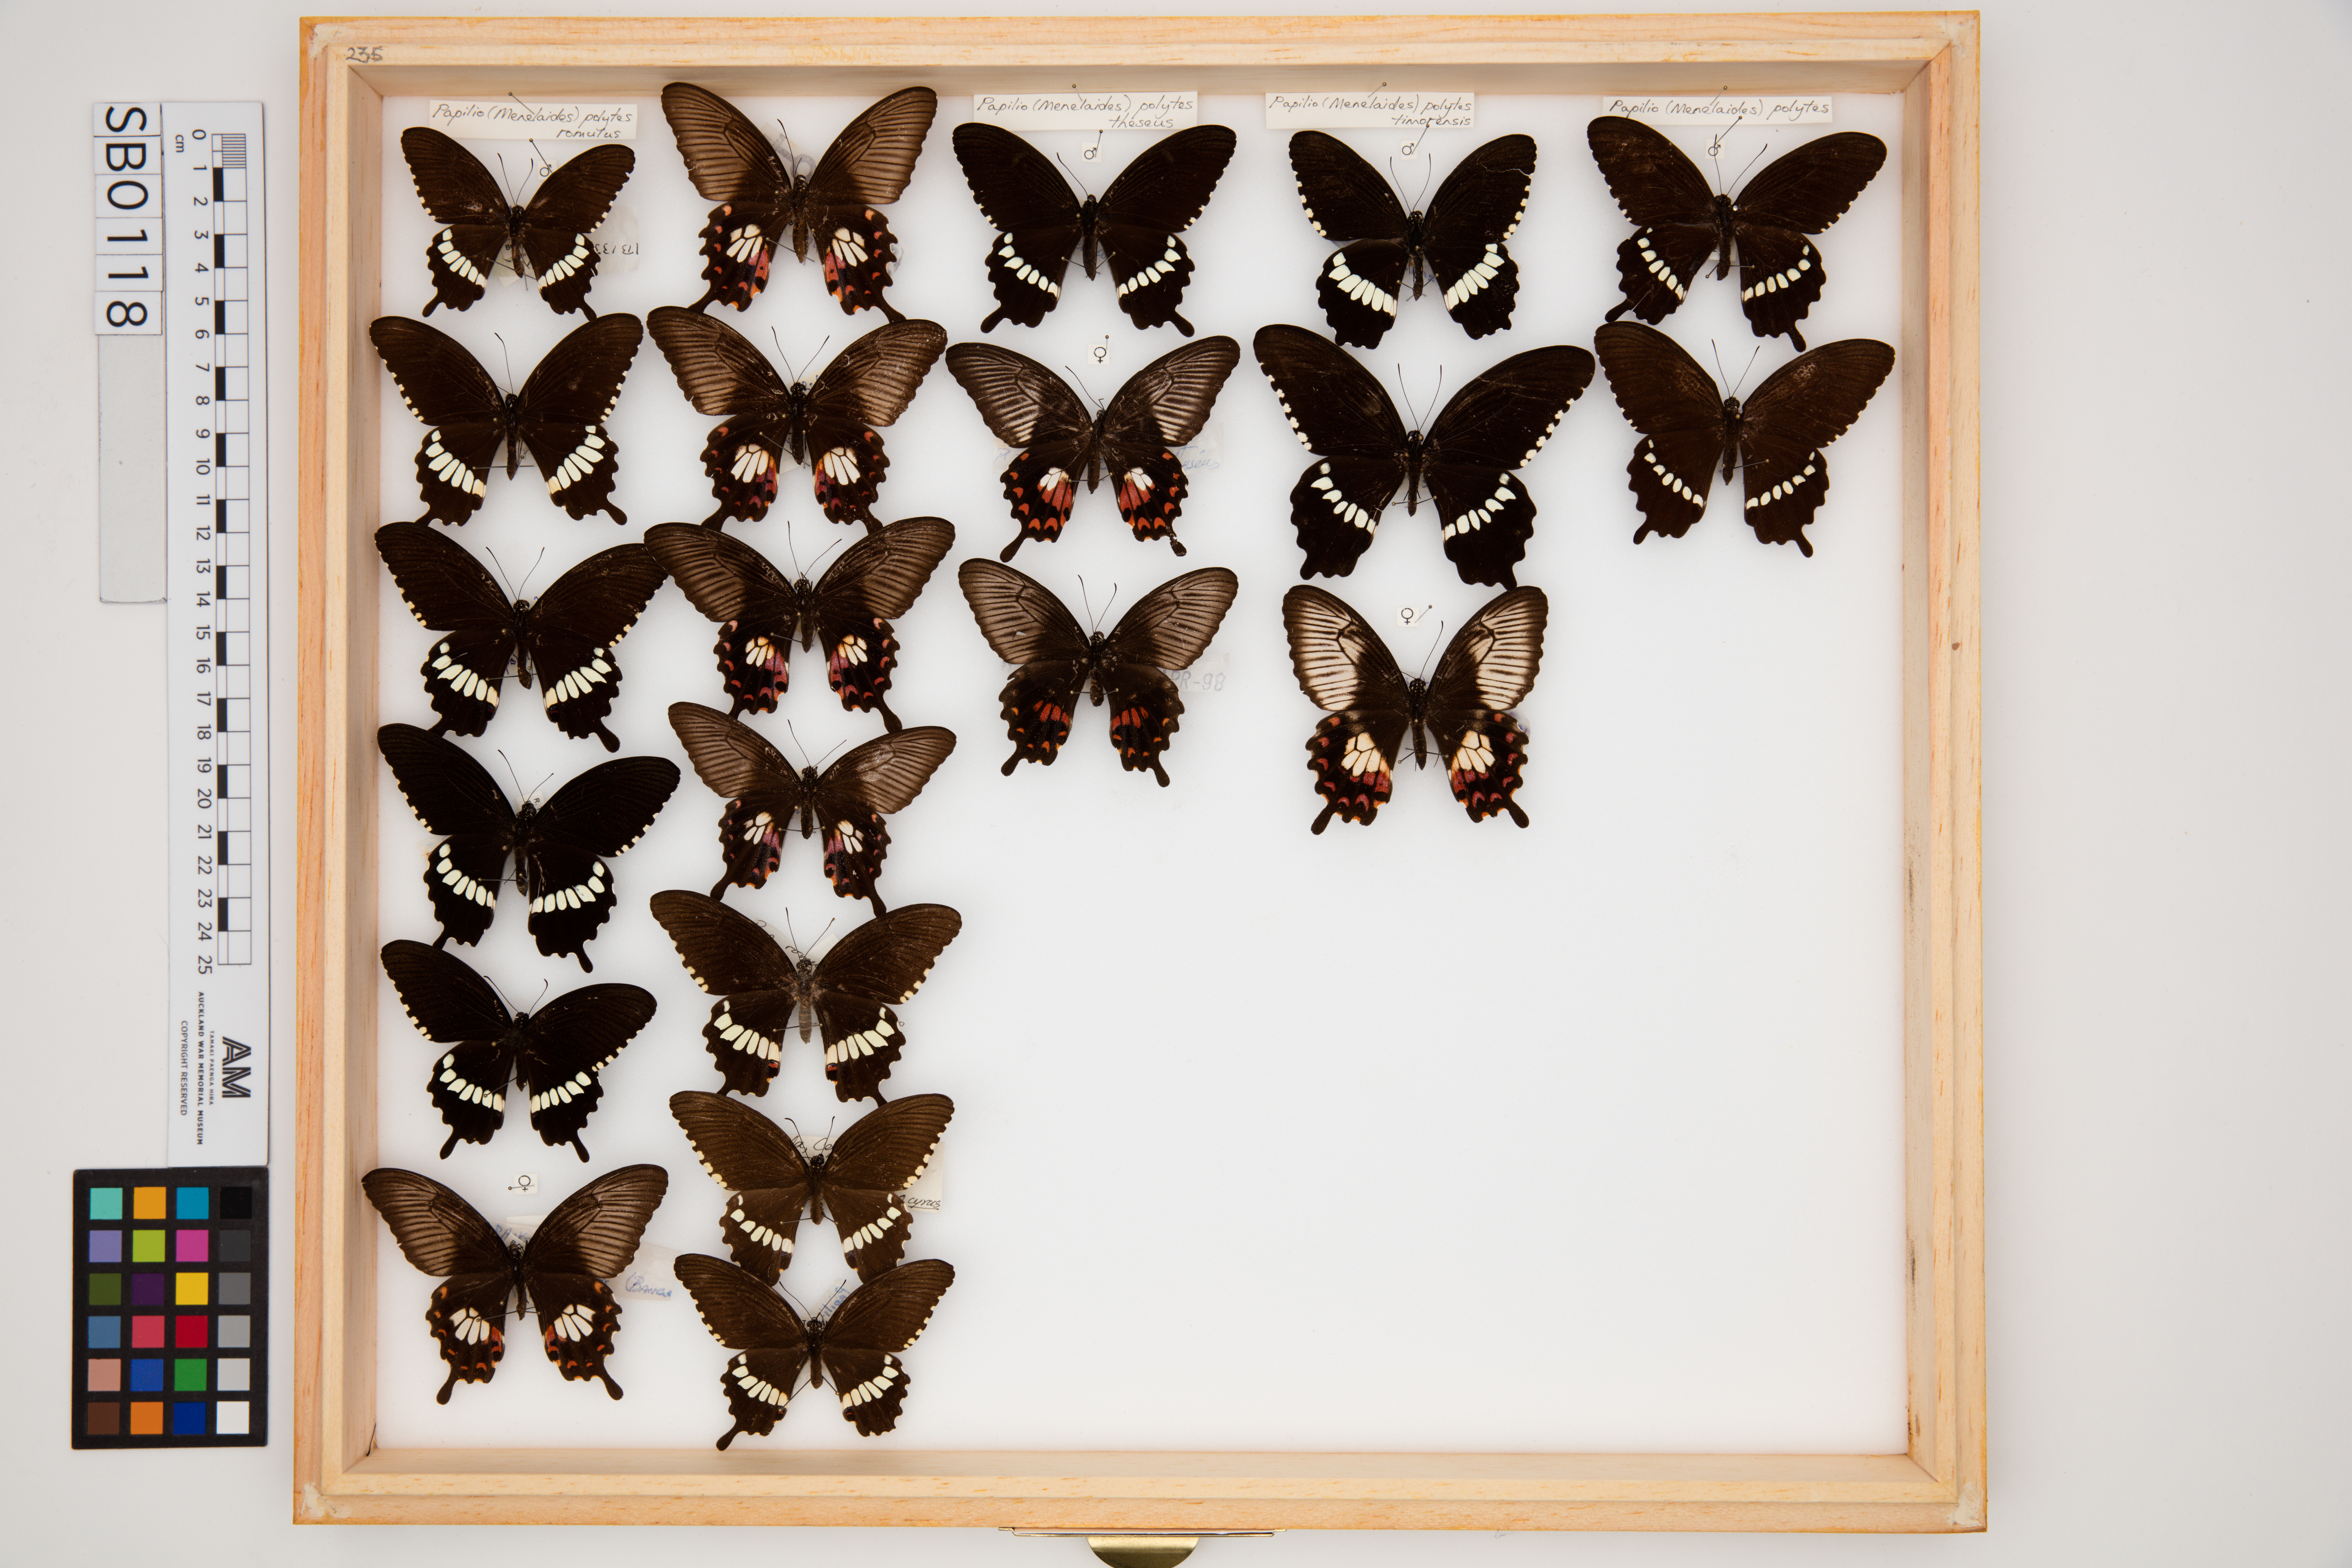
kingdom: Animalia
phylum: Arthropoda
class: Insecta
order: Lepidoptera
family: Papilionidae
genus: Papilio
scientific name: Papilio polytes
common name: Common mormon
